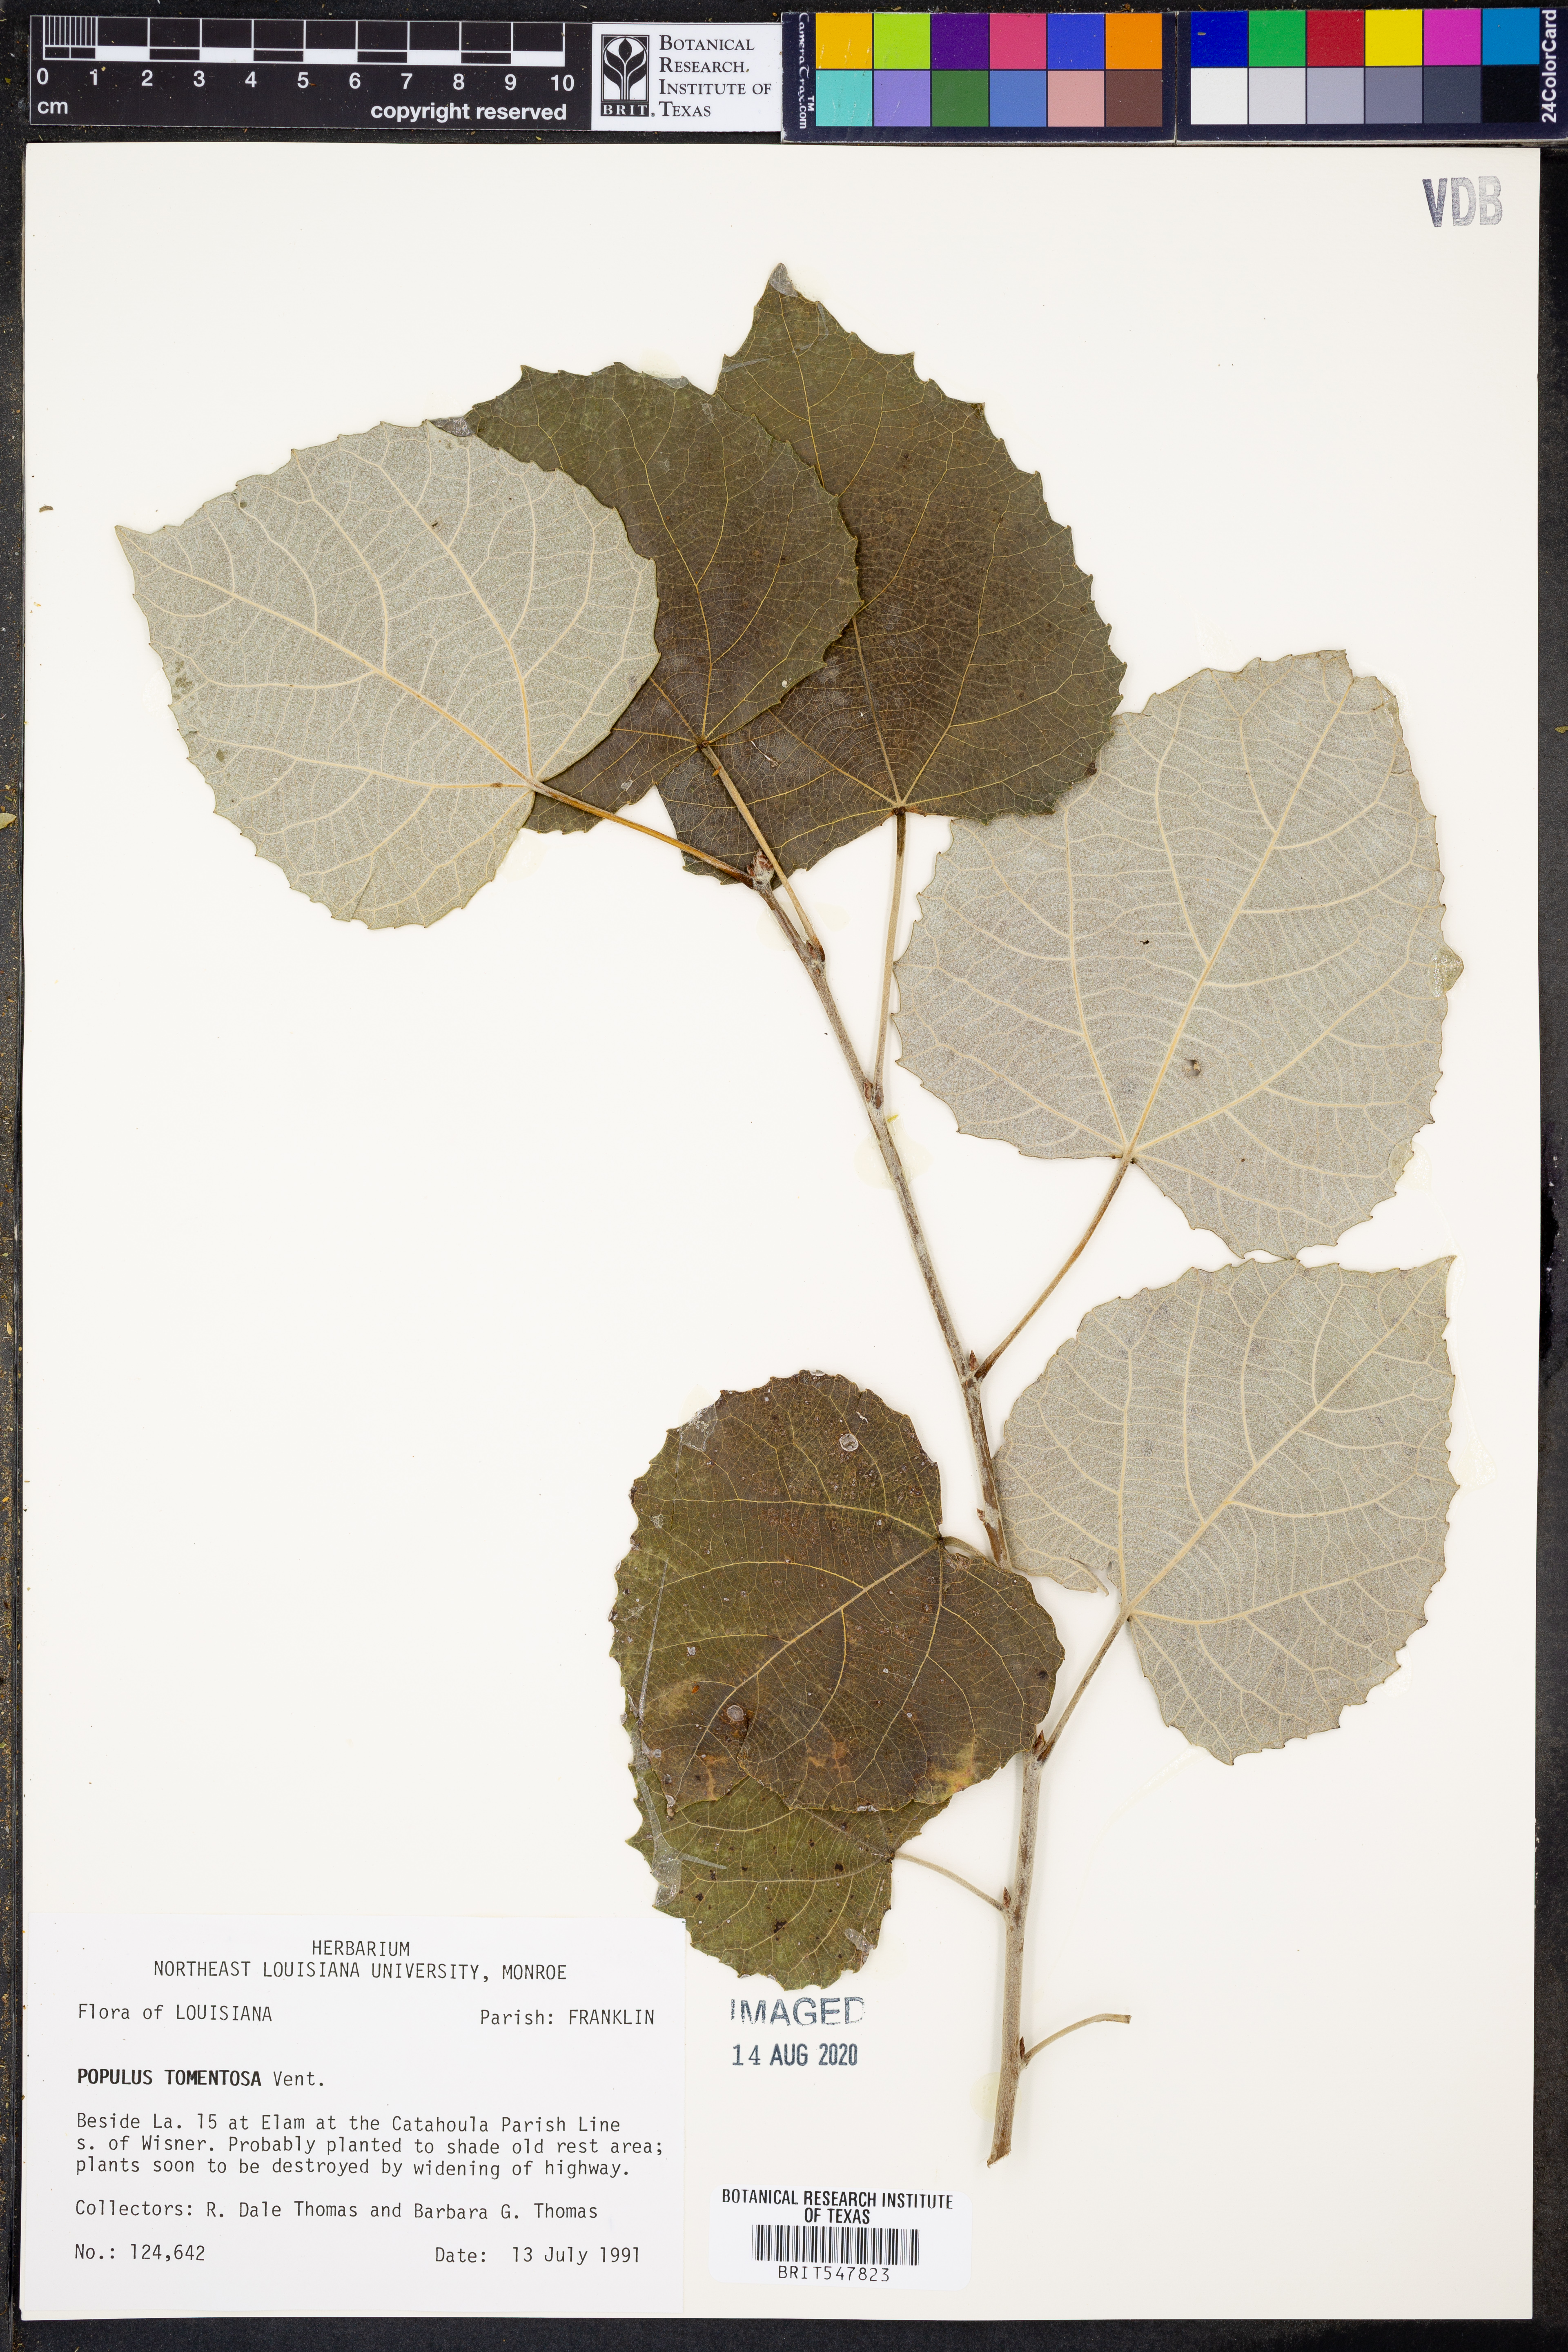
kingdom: Plantae
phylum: Tracheophyta
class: Magnoliopsida
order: Malpighiales
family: Salicaceae
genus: Populus
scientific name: Populus tomentosa
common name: Chinese white poplar
